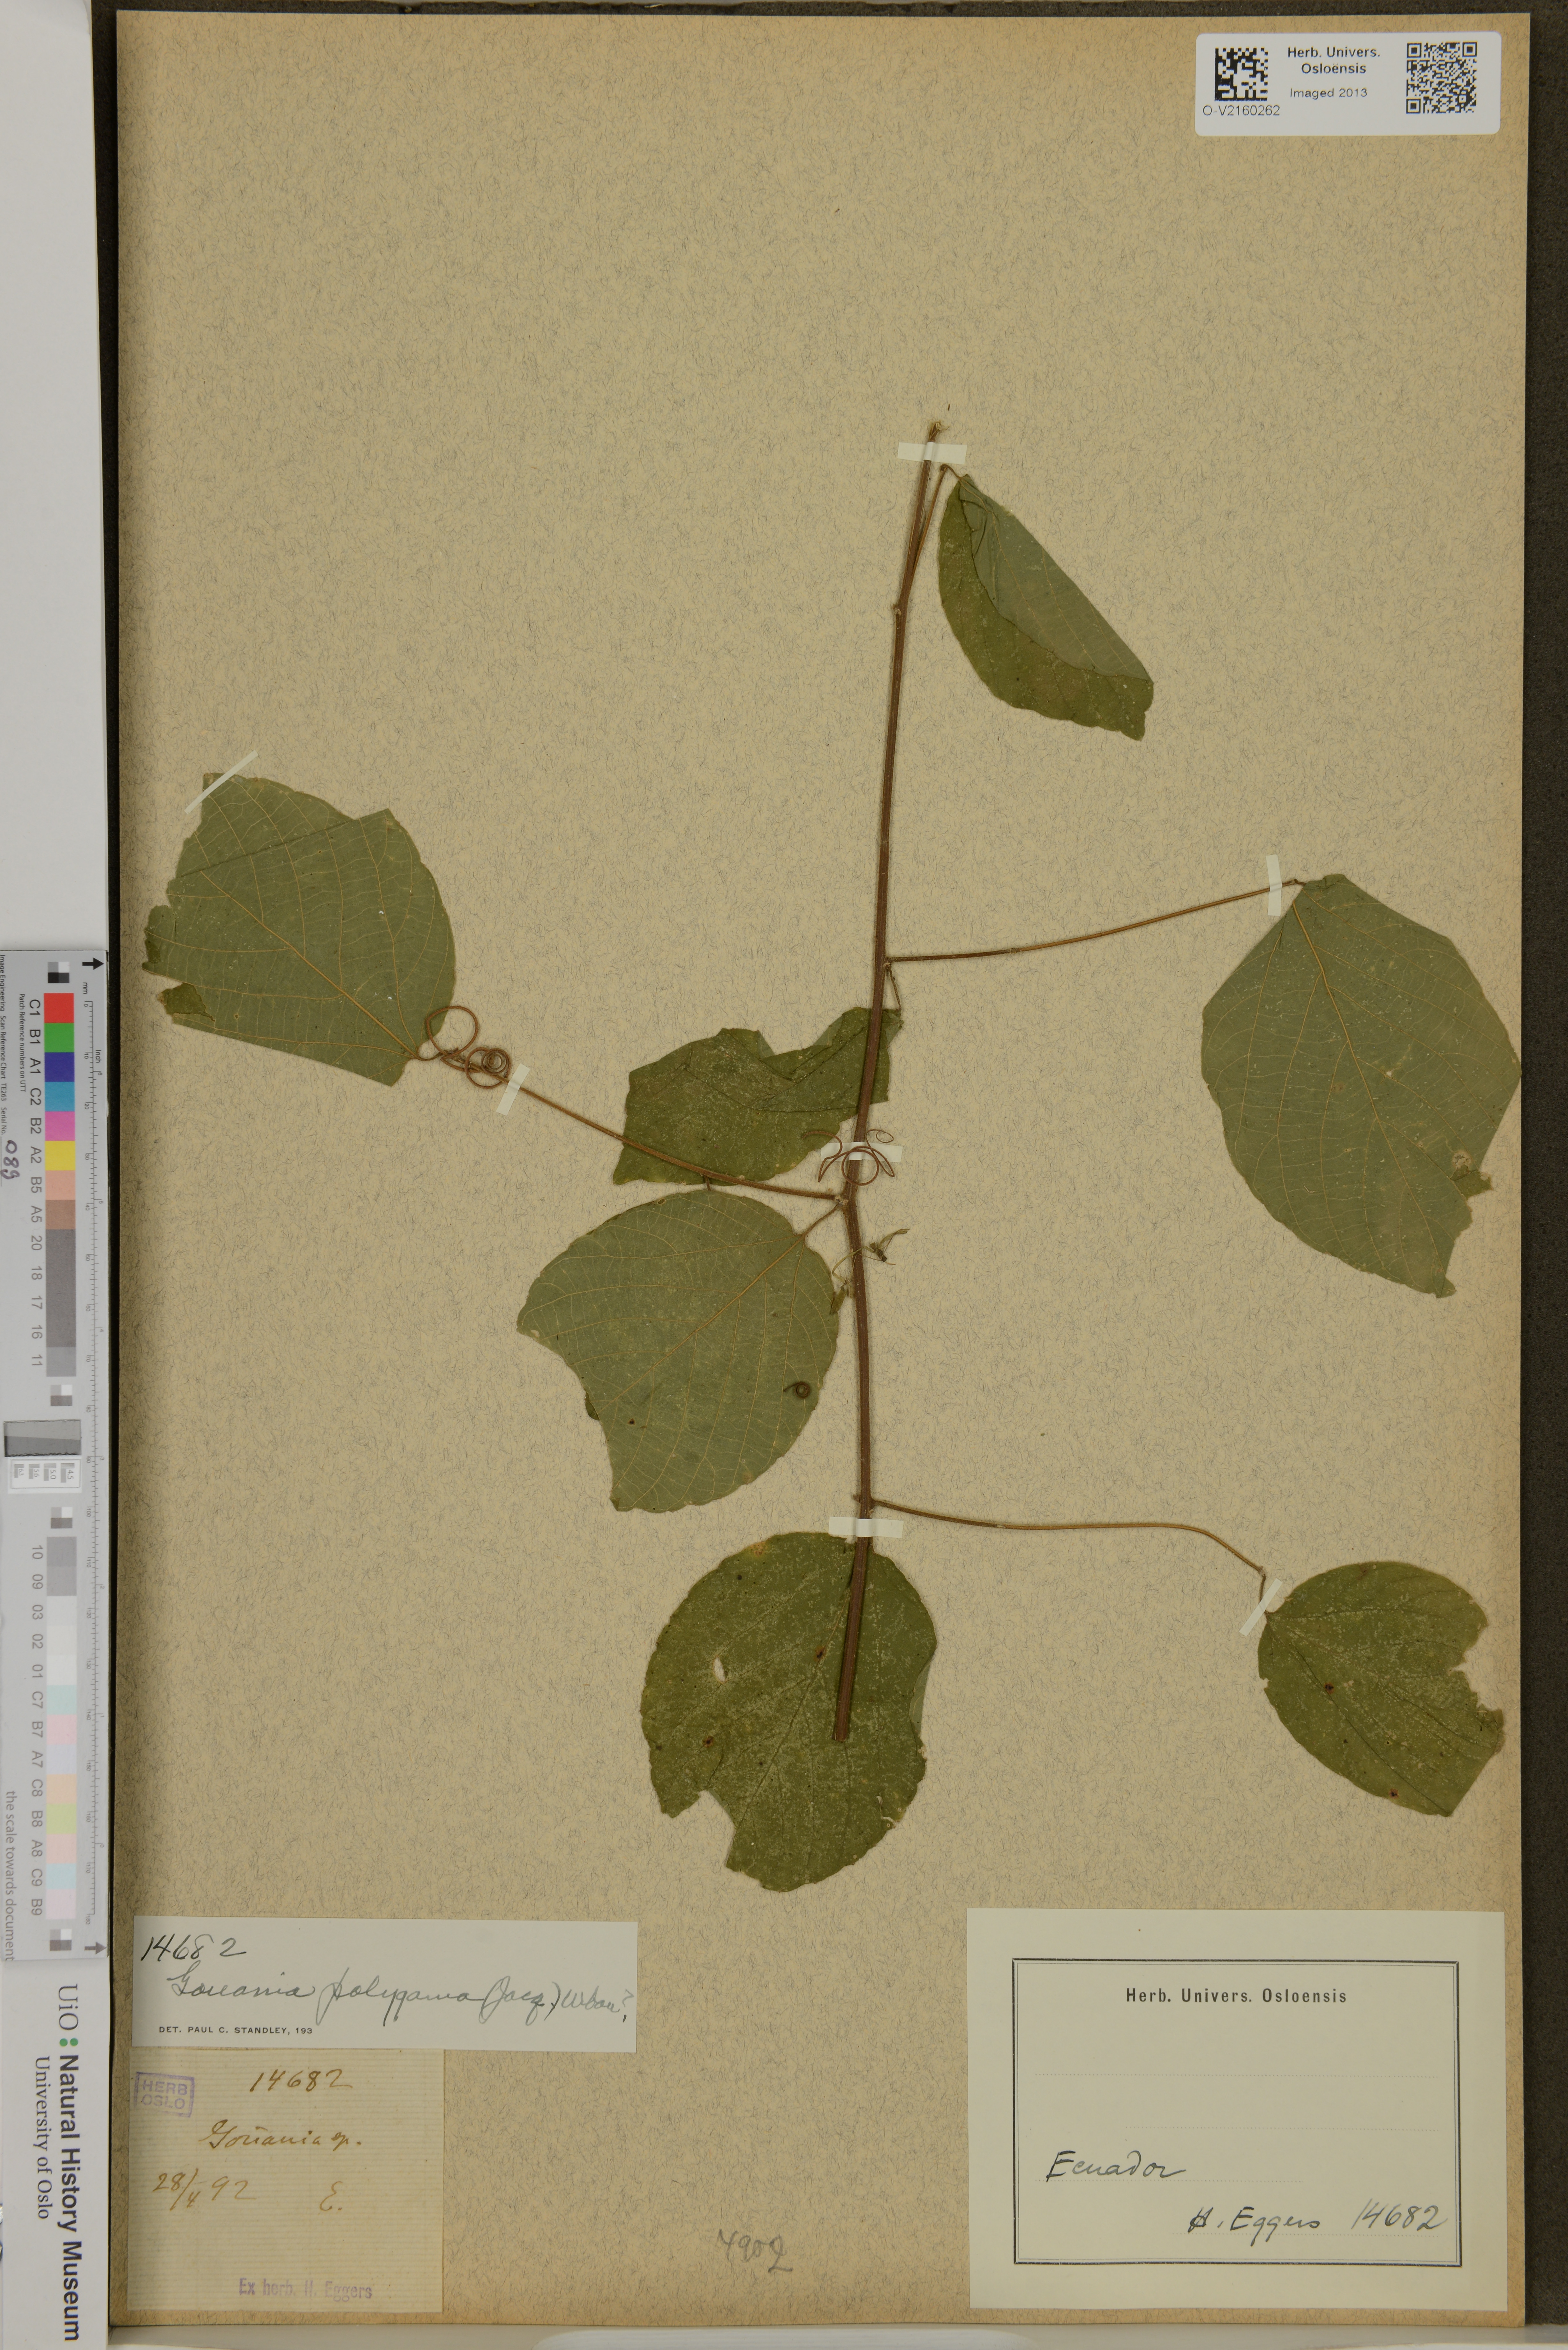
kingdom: Plantae
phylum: Tracheophyta
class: Magnoliopsida
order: Rosales
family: Rhamnaceae
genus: Gouania
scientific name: Gouania polygama
